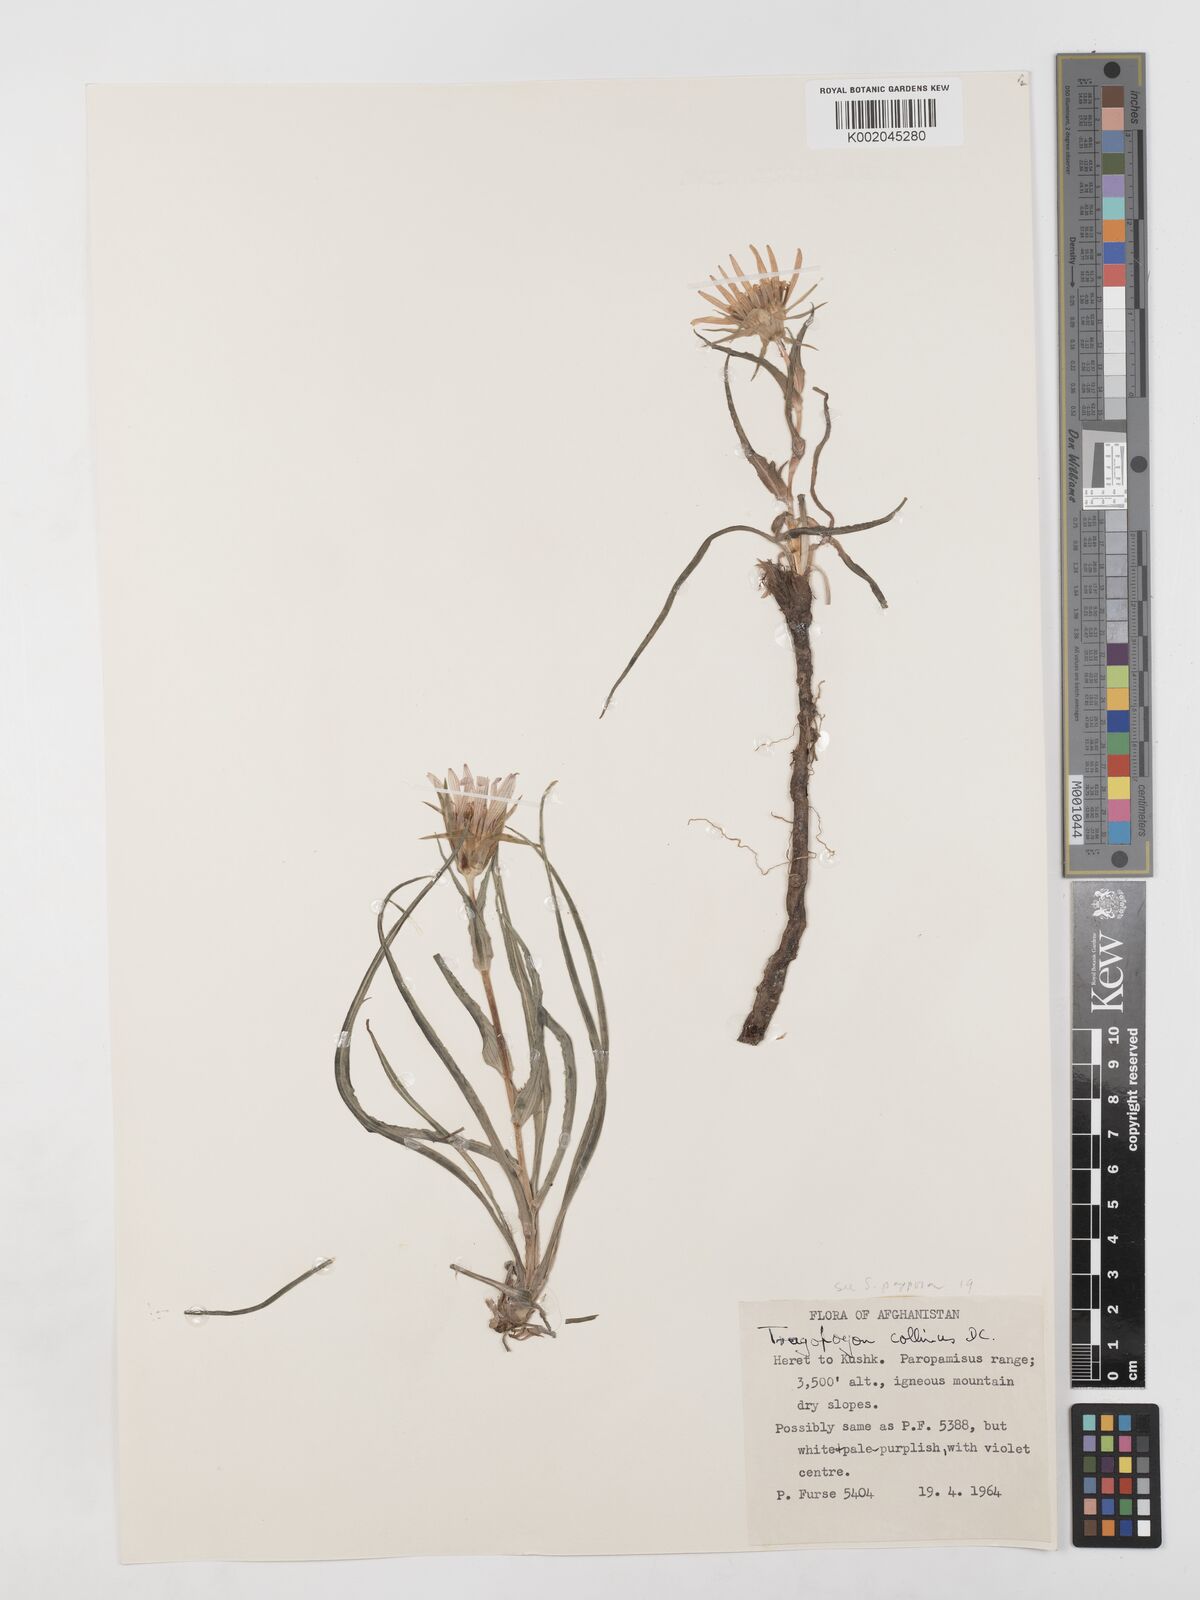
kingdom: Plantae
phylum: Tracheophyta
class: Magnoliopsida
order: Asterales
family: Asteraceae
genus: Tragopogon
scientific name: Tragopogon collinus
